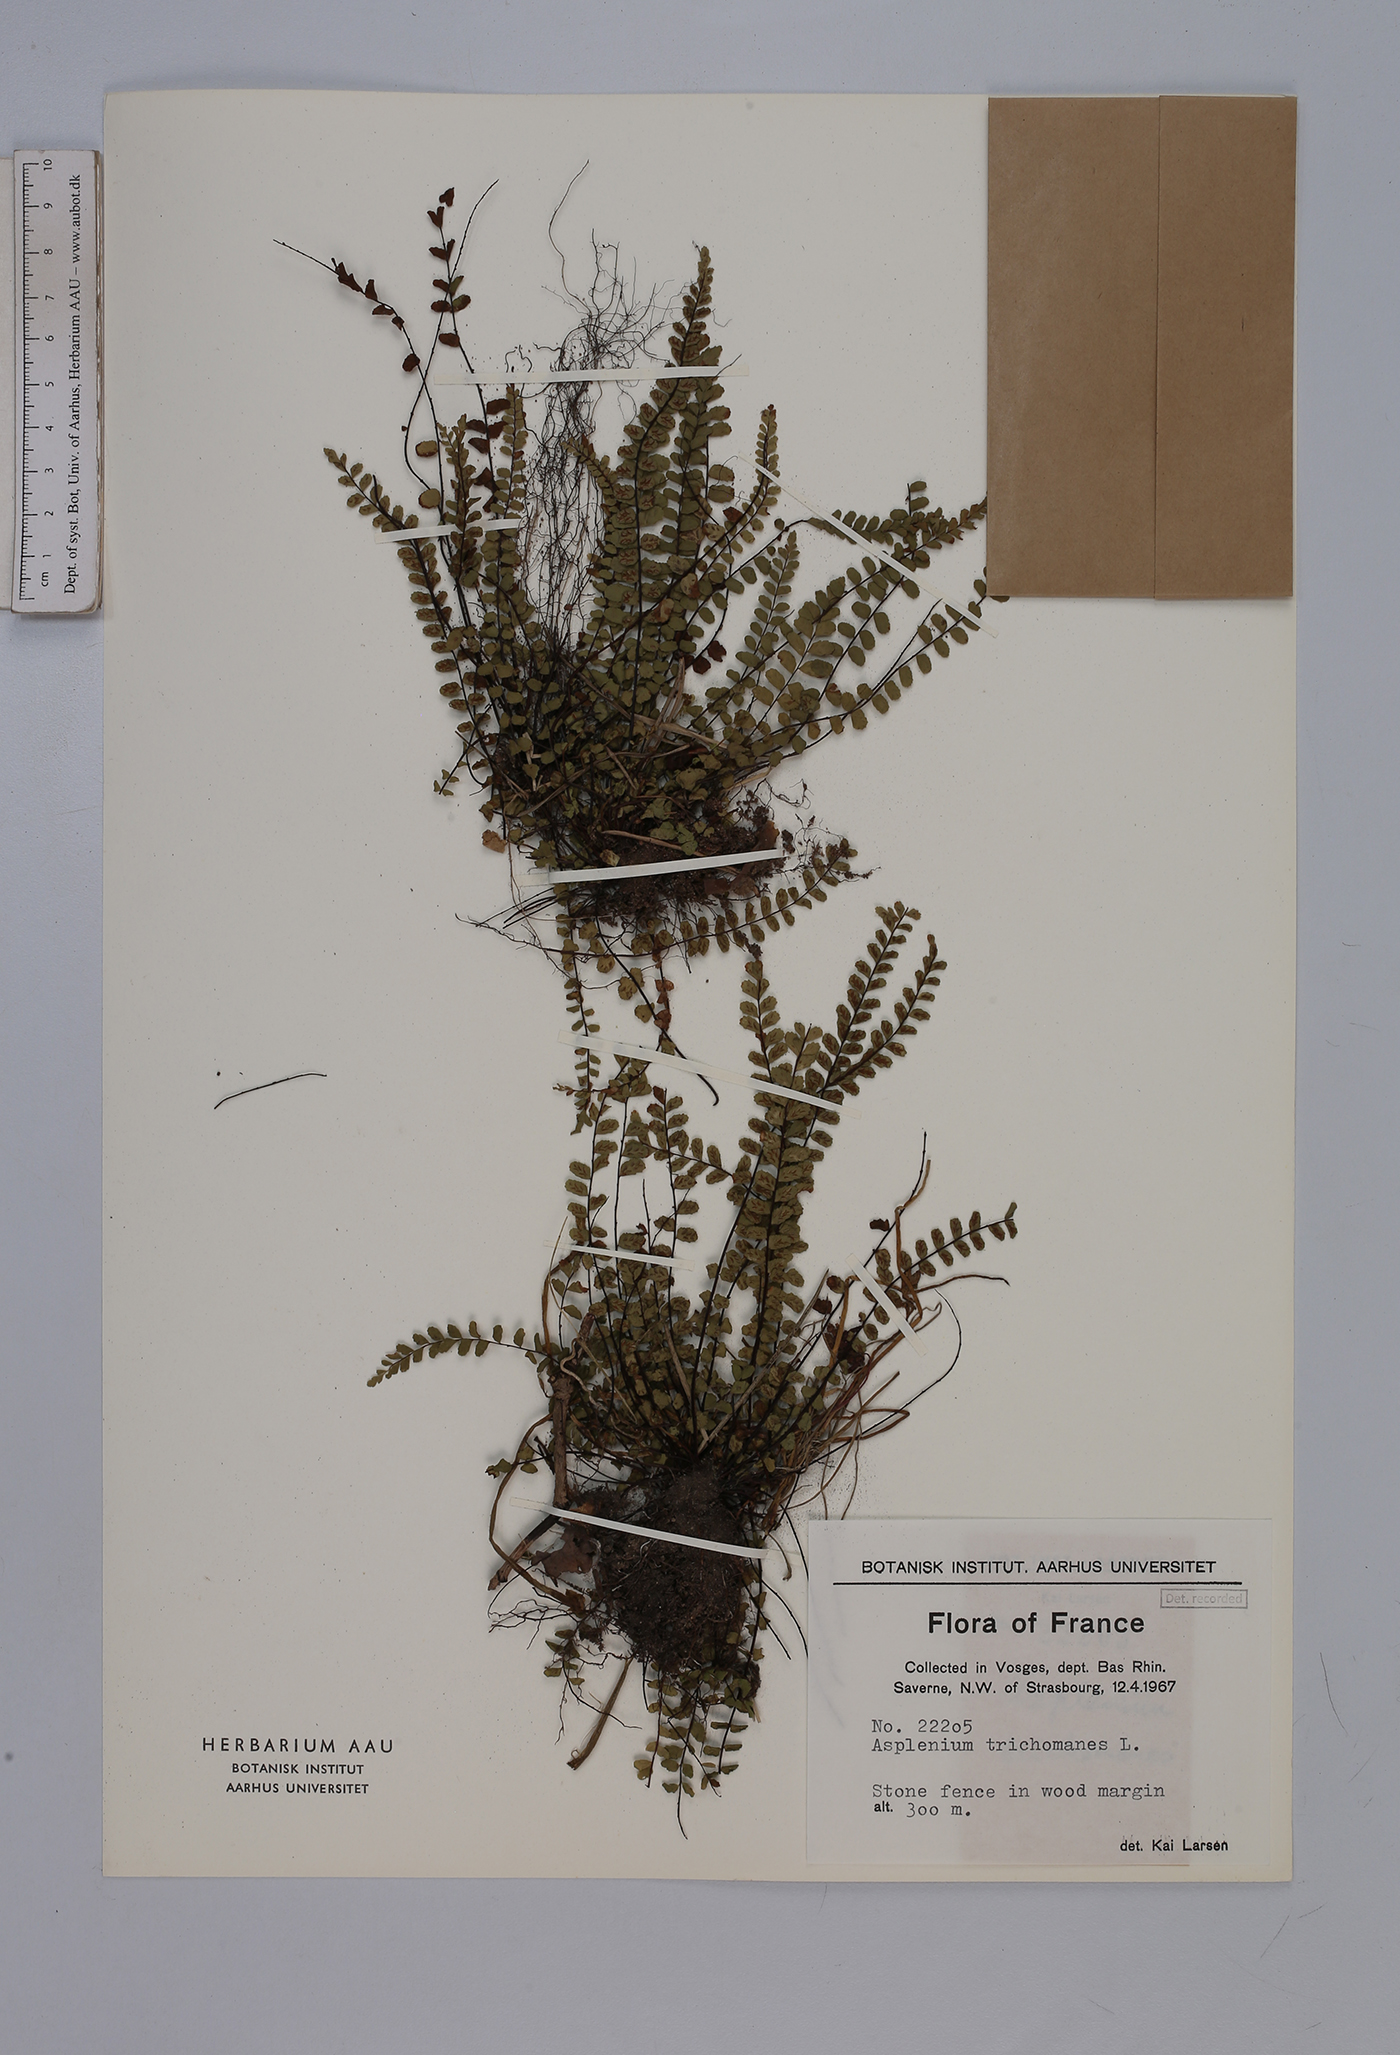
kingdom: Plantae
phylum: Tracheophyta
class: Polypodiopsida
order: Polypodiales
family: Aspleniaceae
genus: Asplenium
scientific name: Asplenium trichomanes
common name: Maidenhair spleenwort
